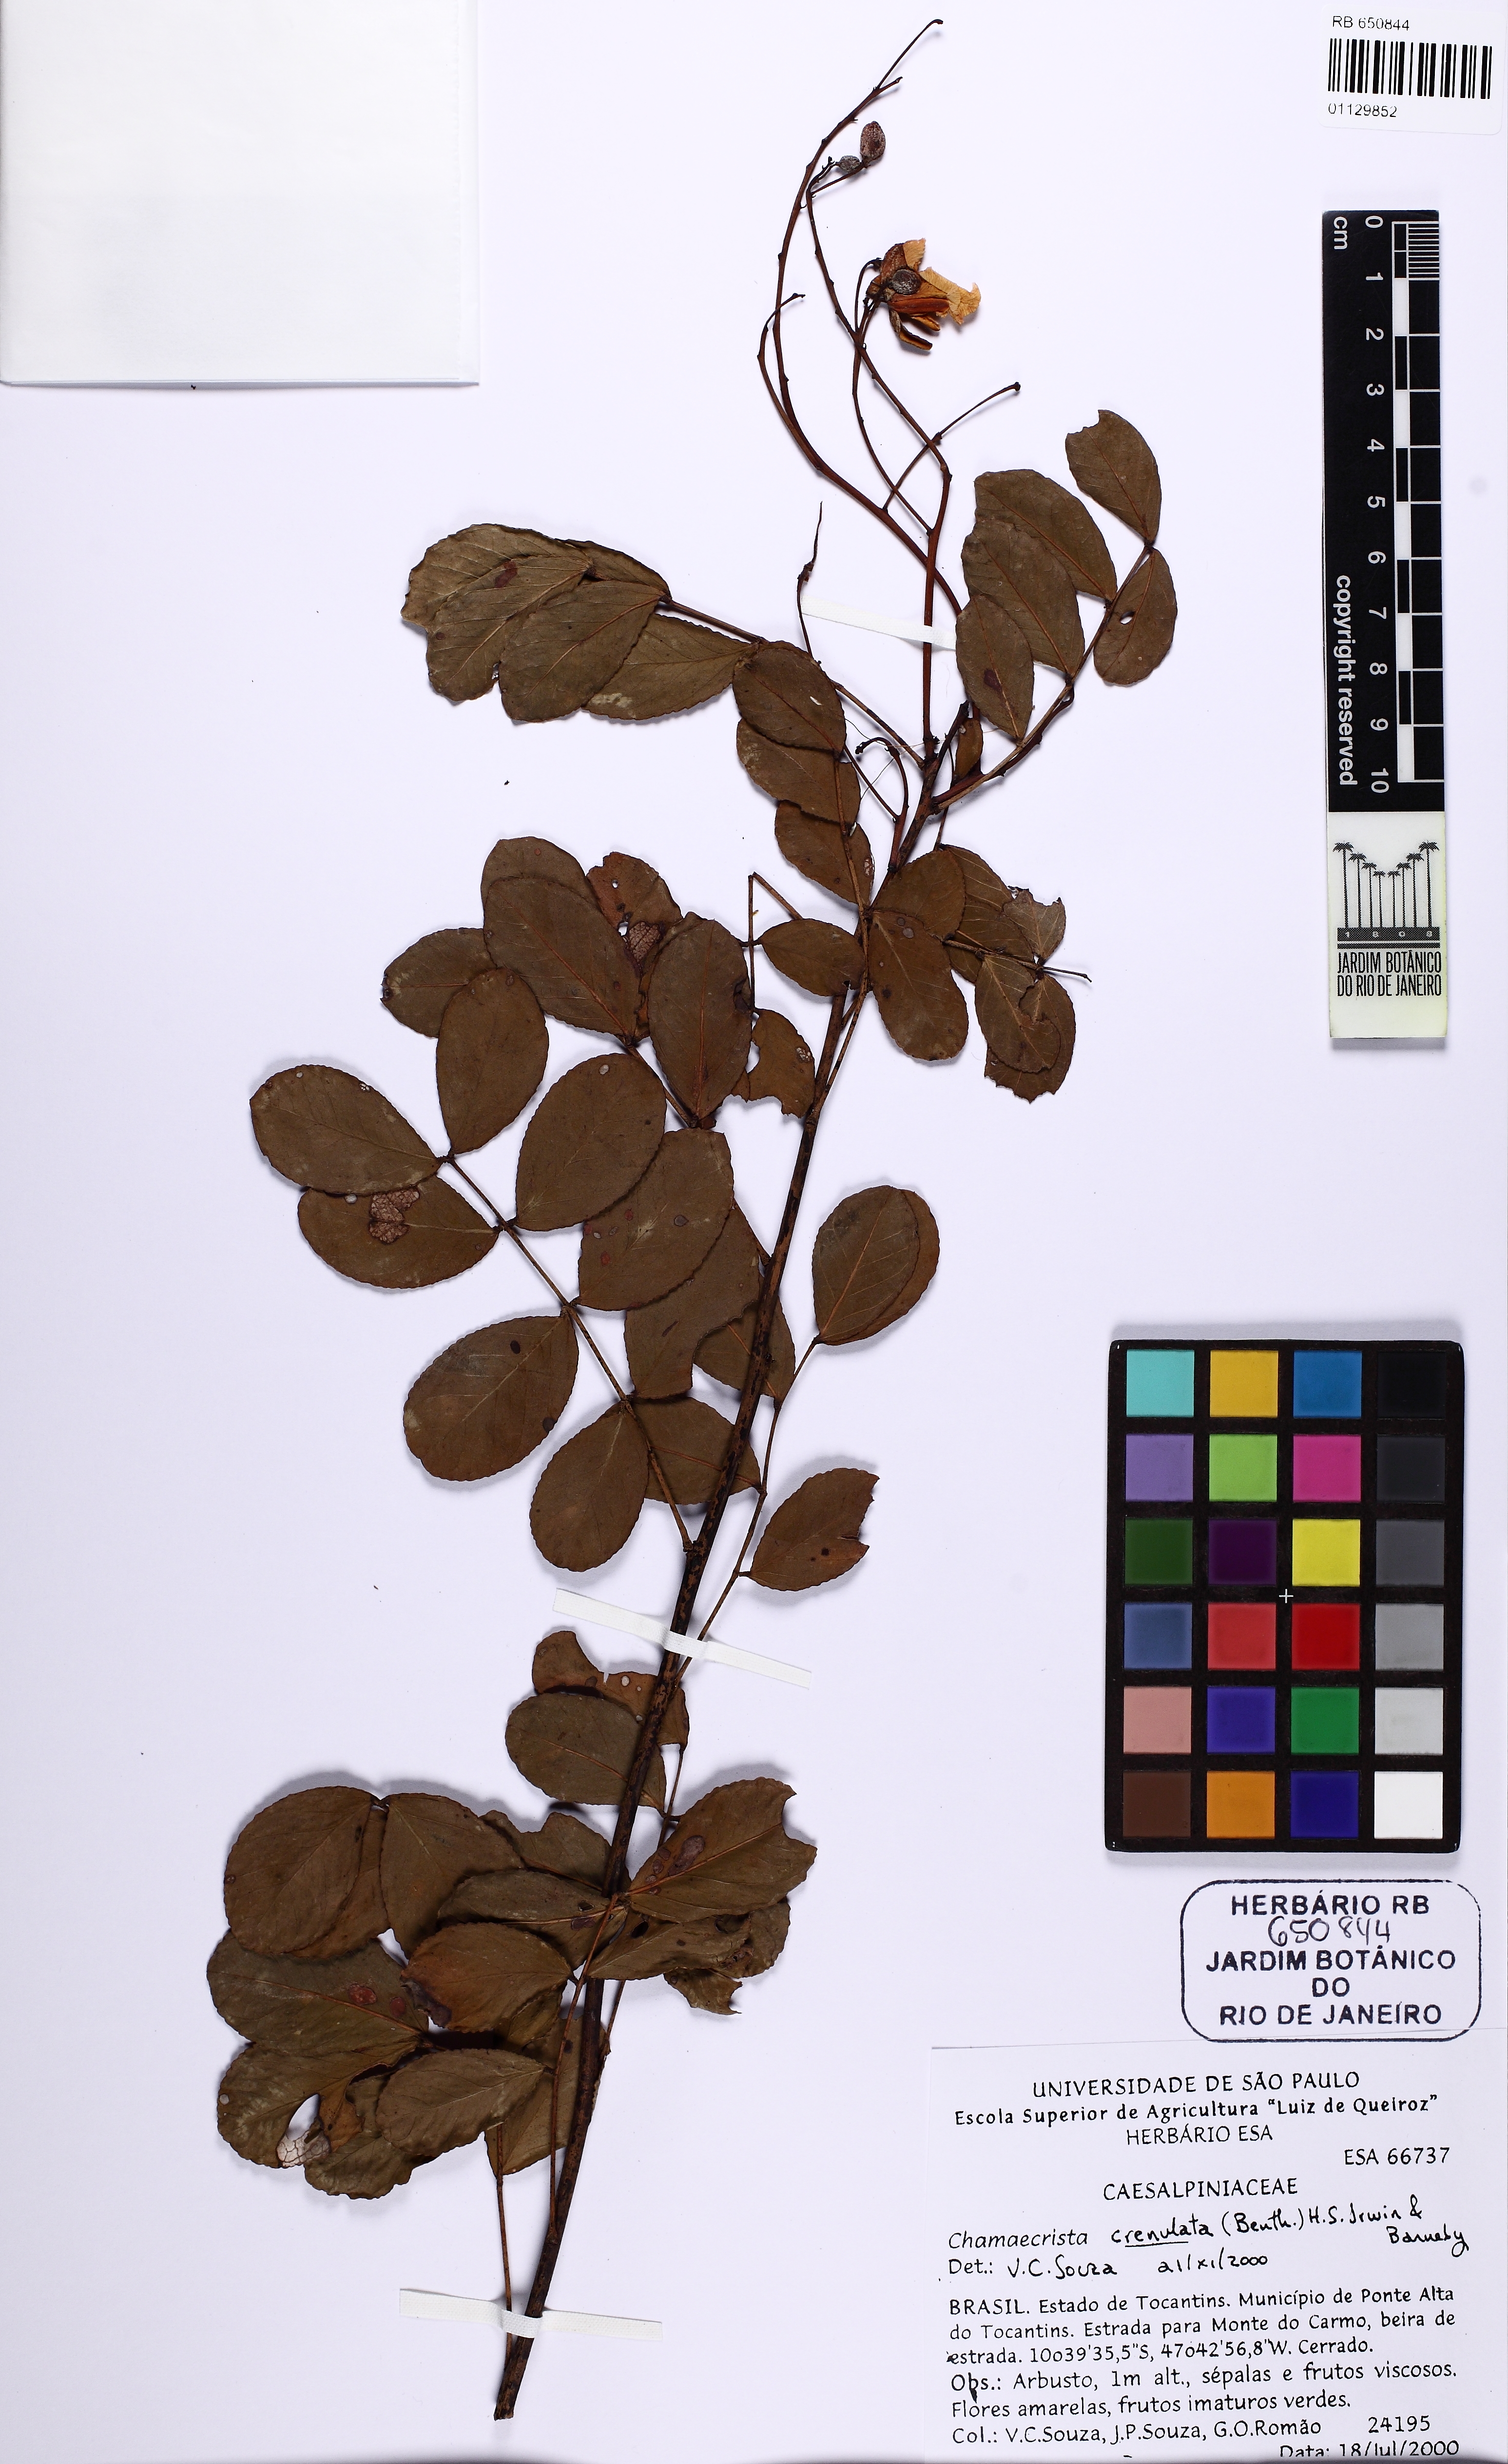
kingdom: Plantae
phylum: Tracheophyta
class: Magnoliopsida
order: Fabales
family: Fabaceae
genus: Chamaecrista
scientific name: Chamaecrista crenulata
